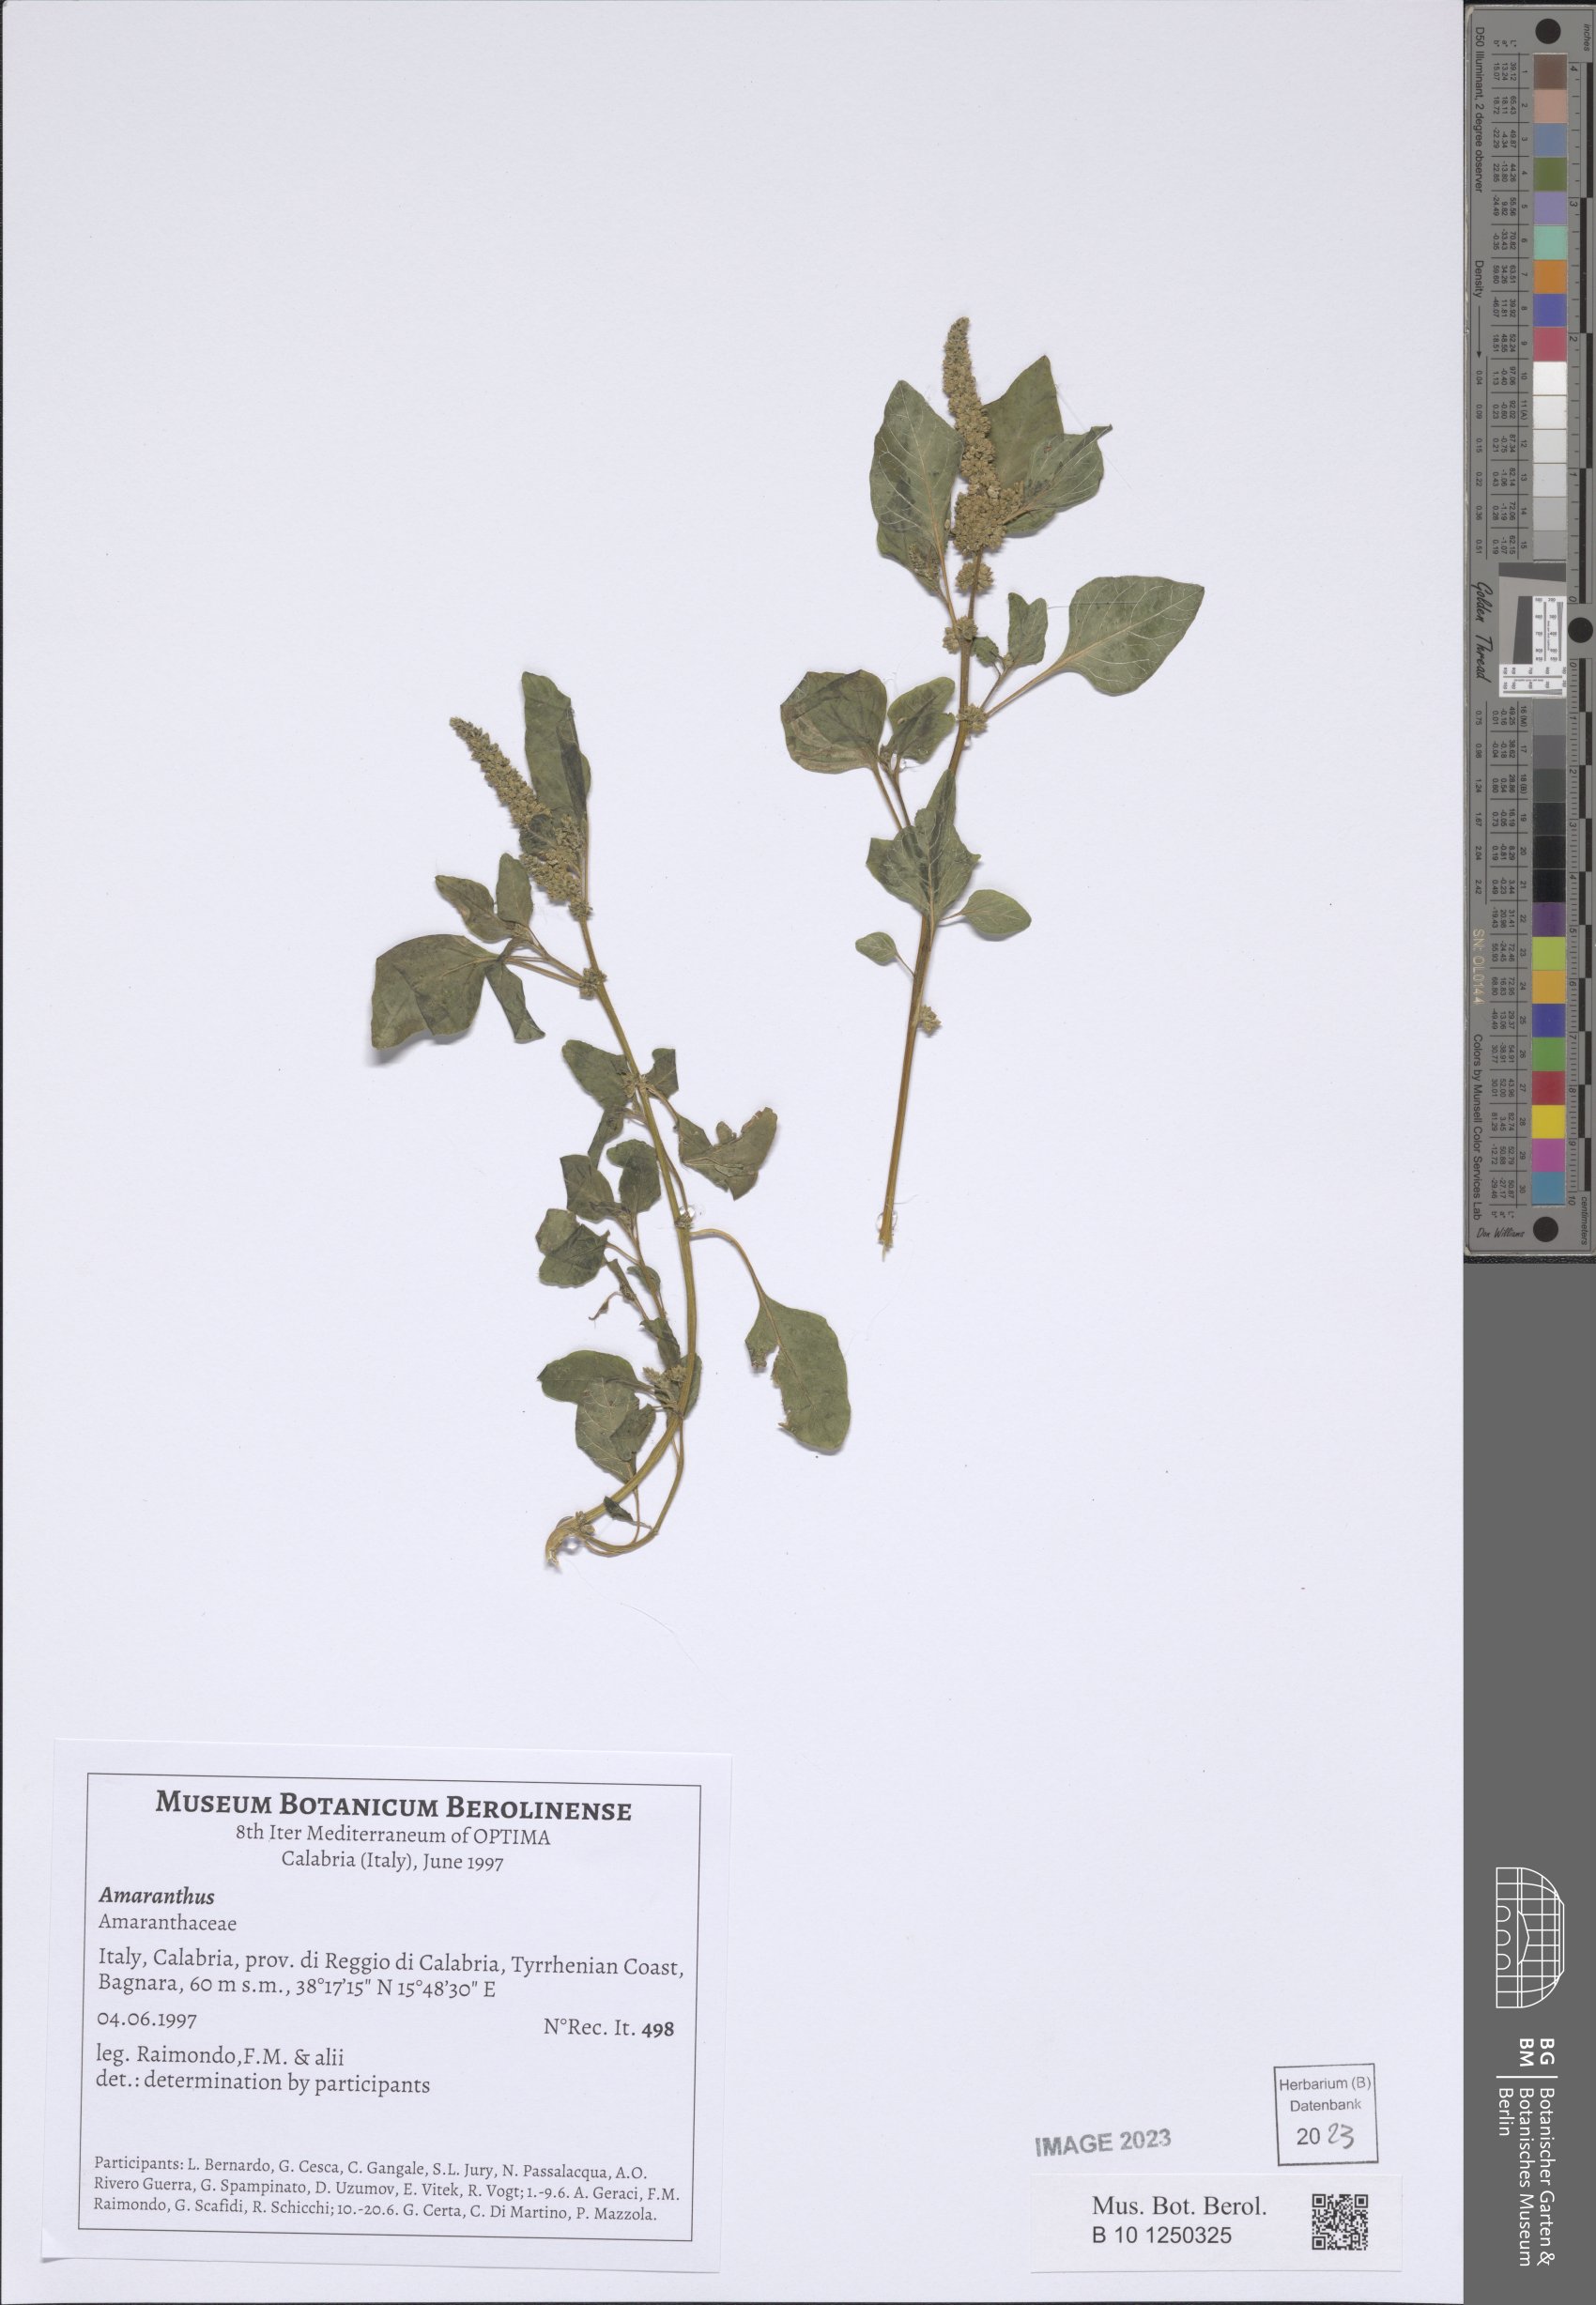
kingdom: Plantae
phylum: Tracheophyta
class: Magnoliopsida
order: Caryophyllales
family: Amaranthaceae
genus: Amaranthus
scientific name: Amaranthus
